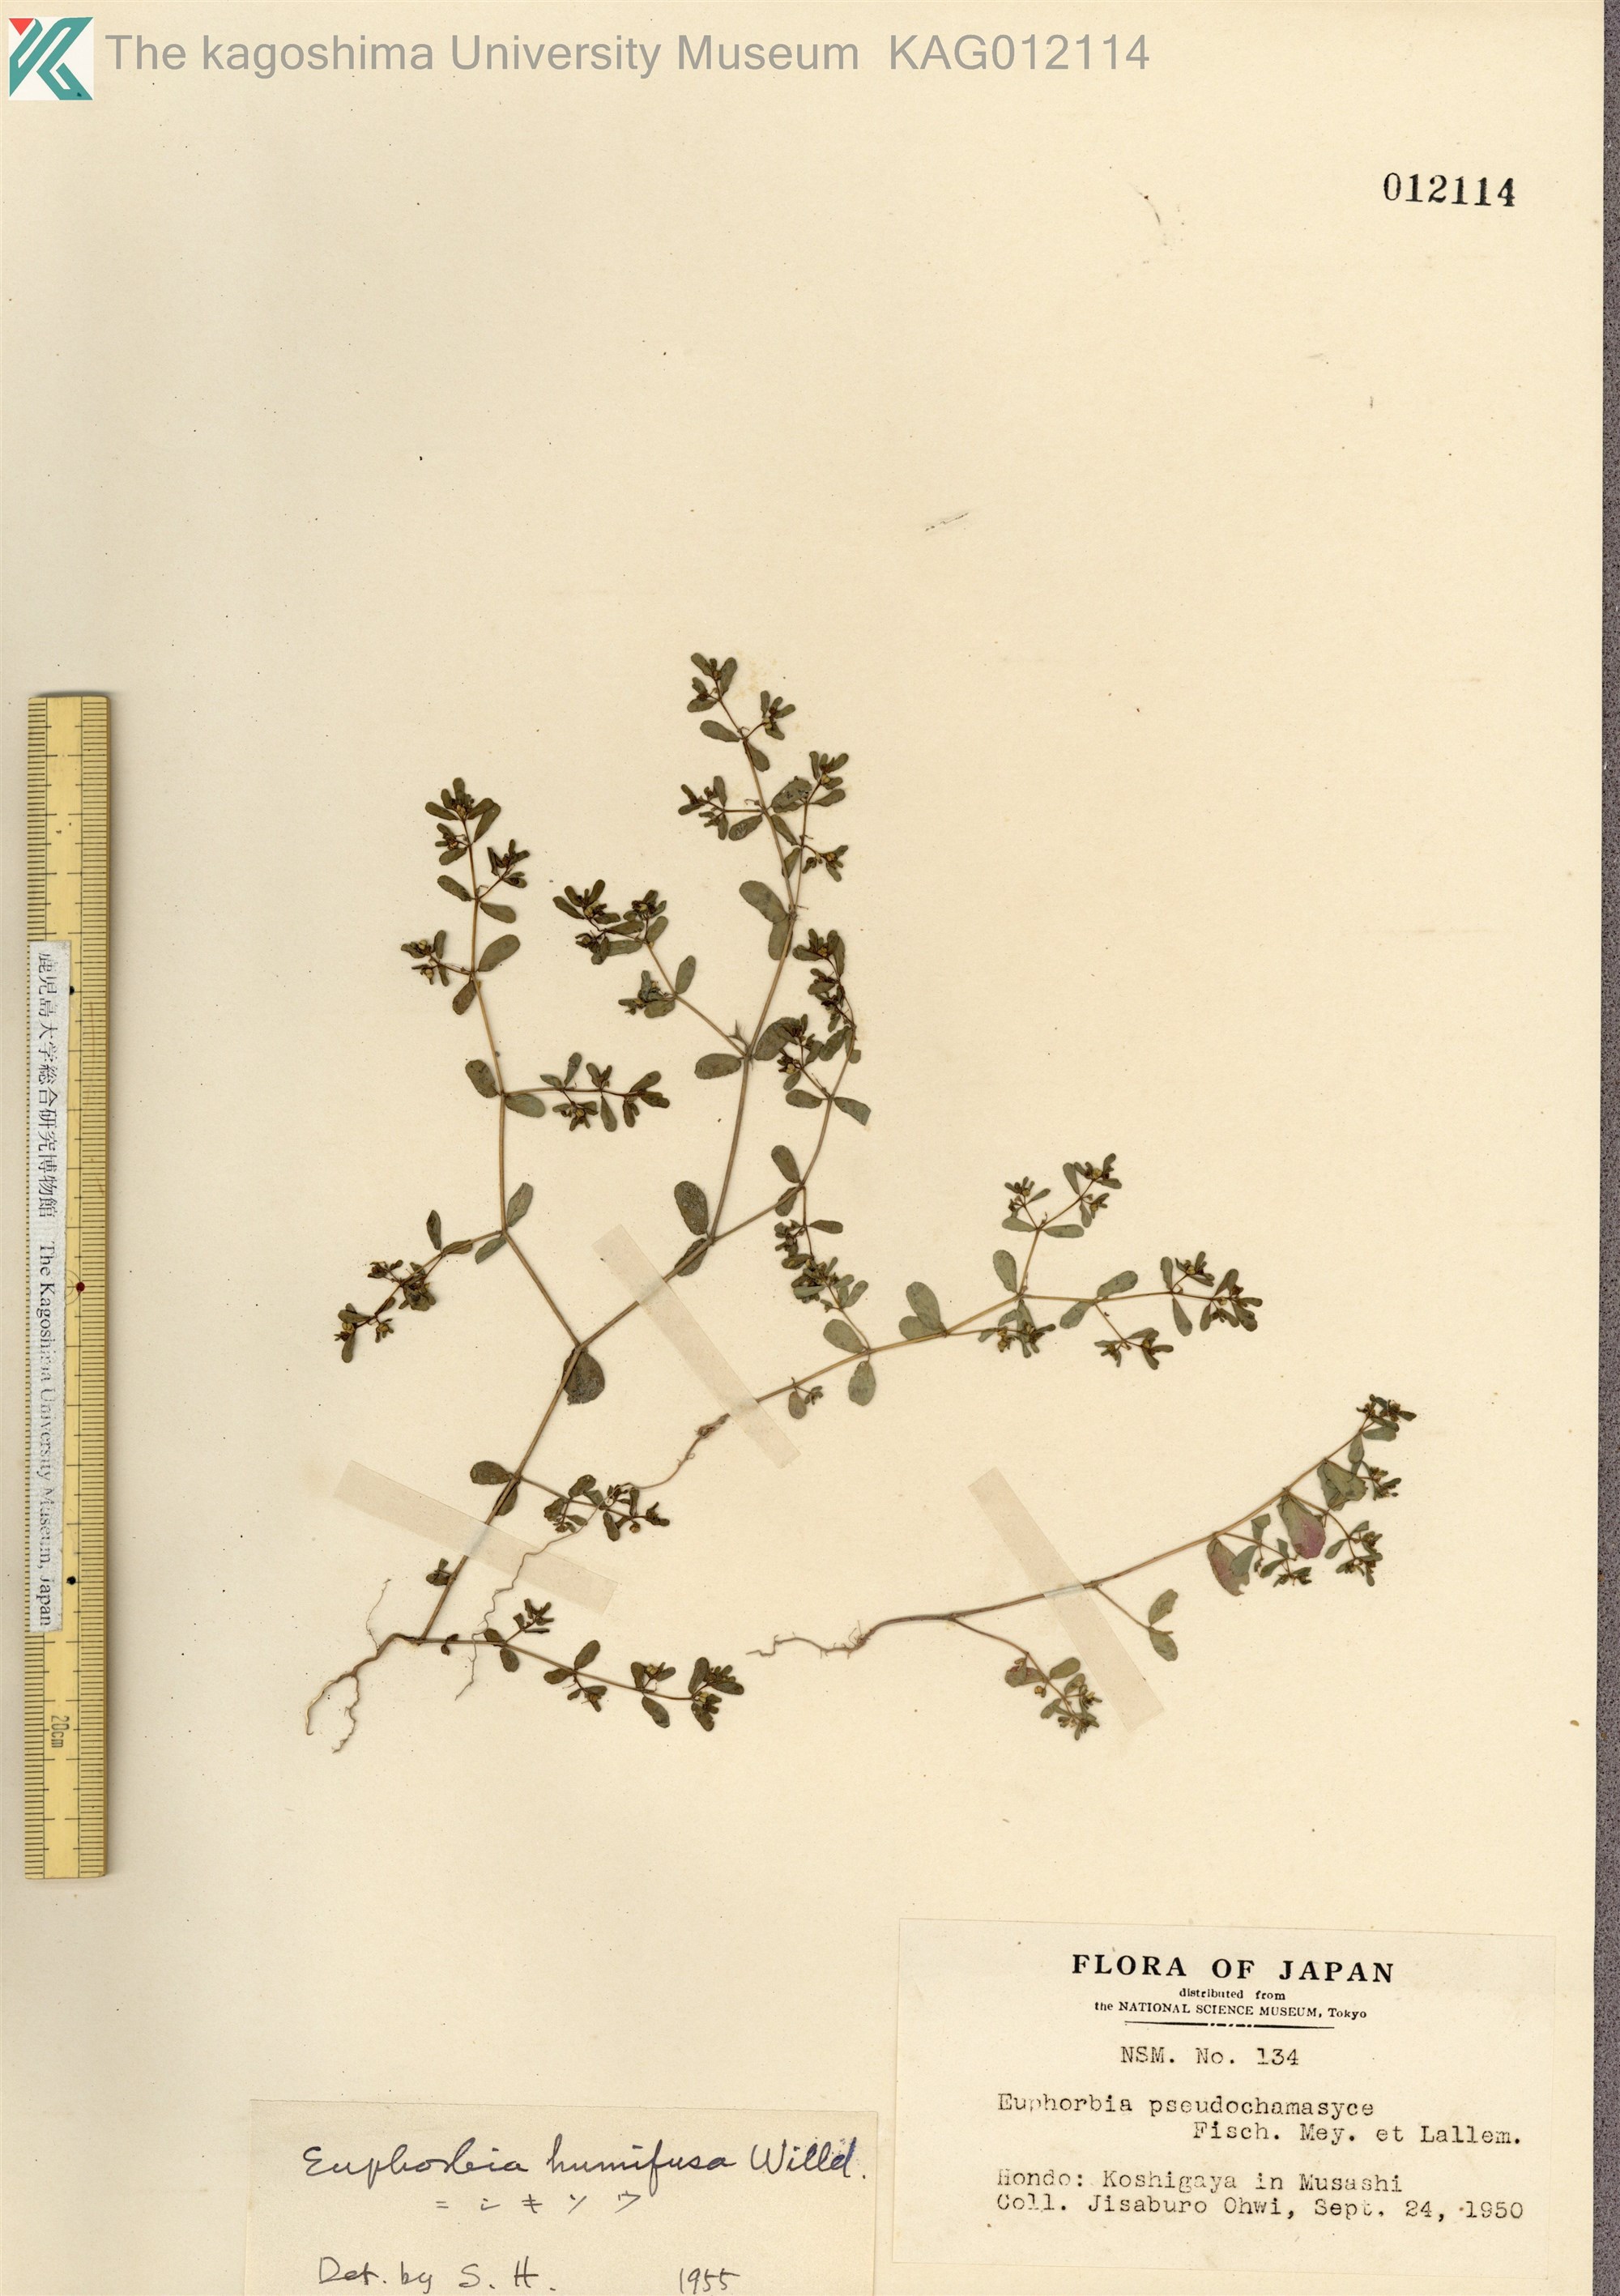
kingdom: Plantae
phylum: Tracheophyta
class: Magnoliopsida
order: Malpighiales
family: Euphorbiaceae
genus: Euphorbia
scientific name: Euphorbia humifusa
